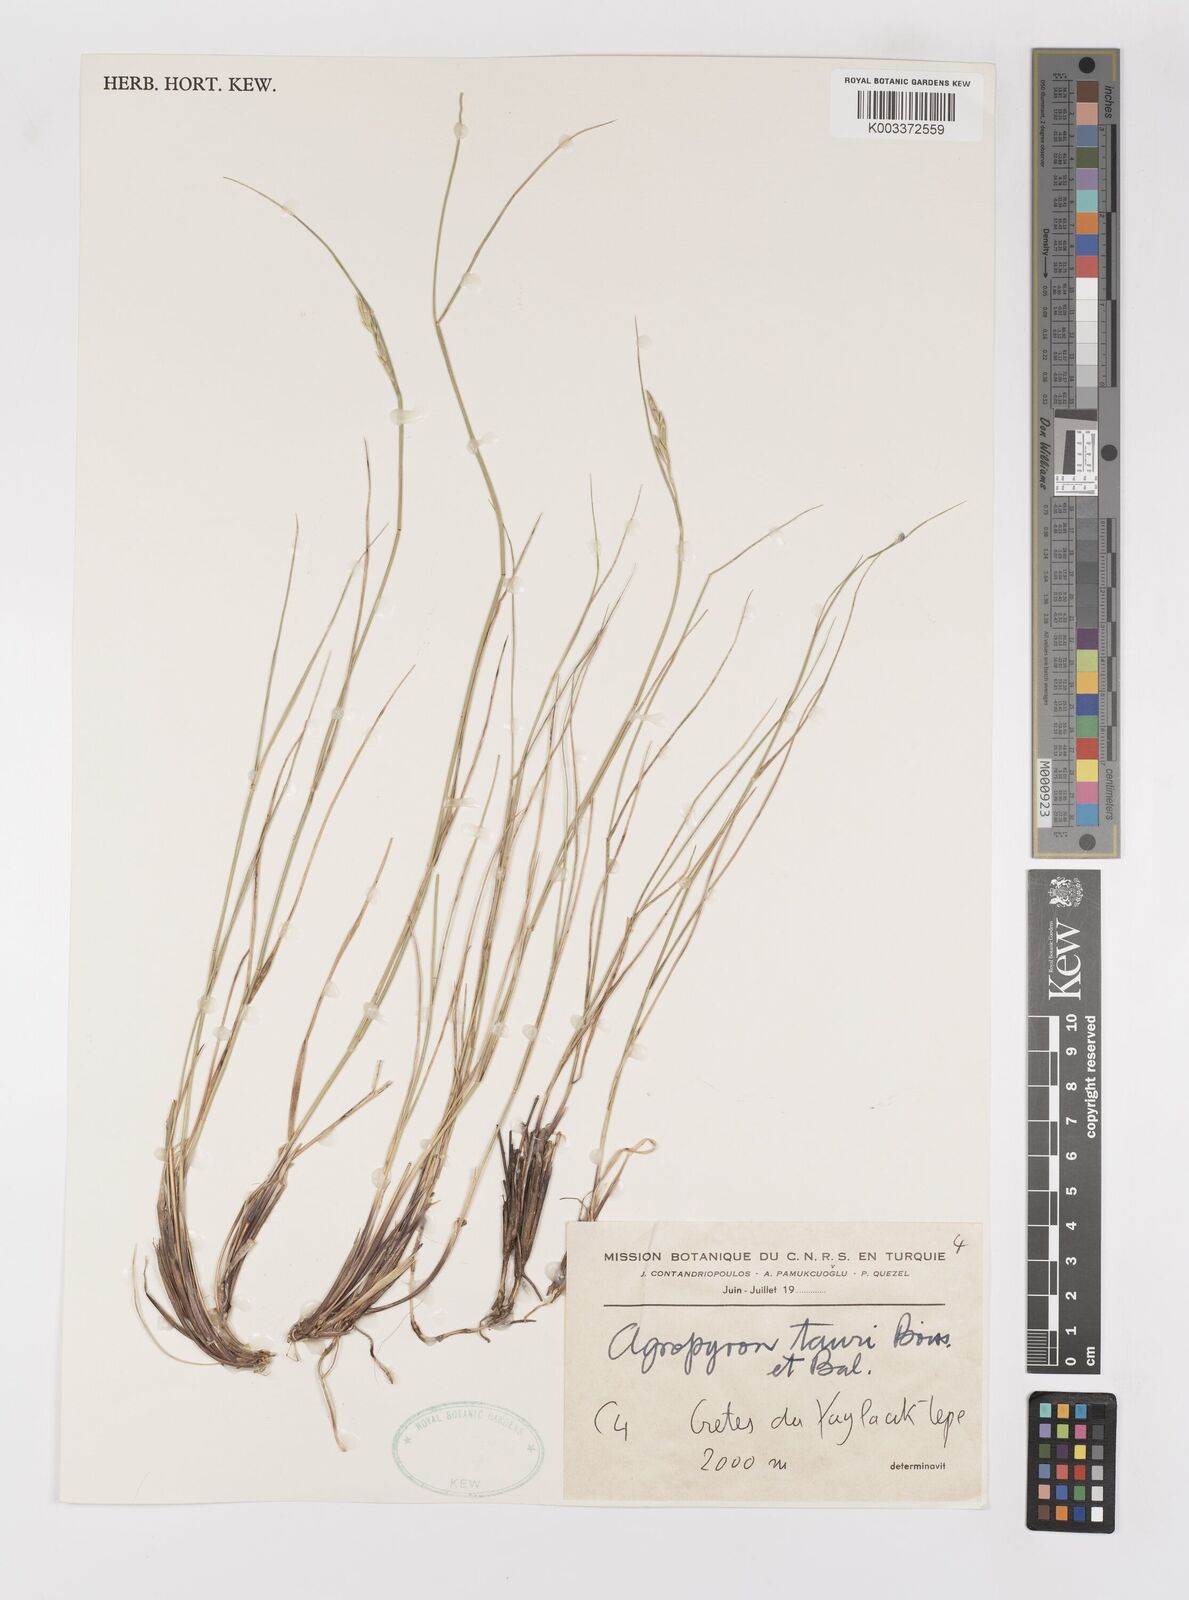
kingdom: Plantae
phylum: Tracheophyta
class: Liliopsida
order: Poales
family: Poaceae
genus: Pseudoroegneria
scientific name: Pseudoroegneria tauri
